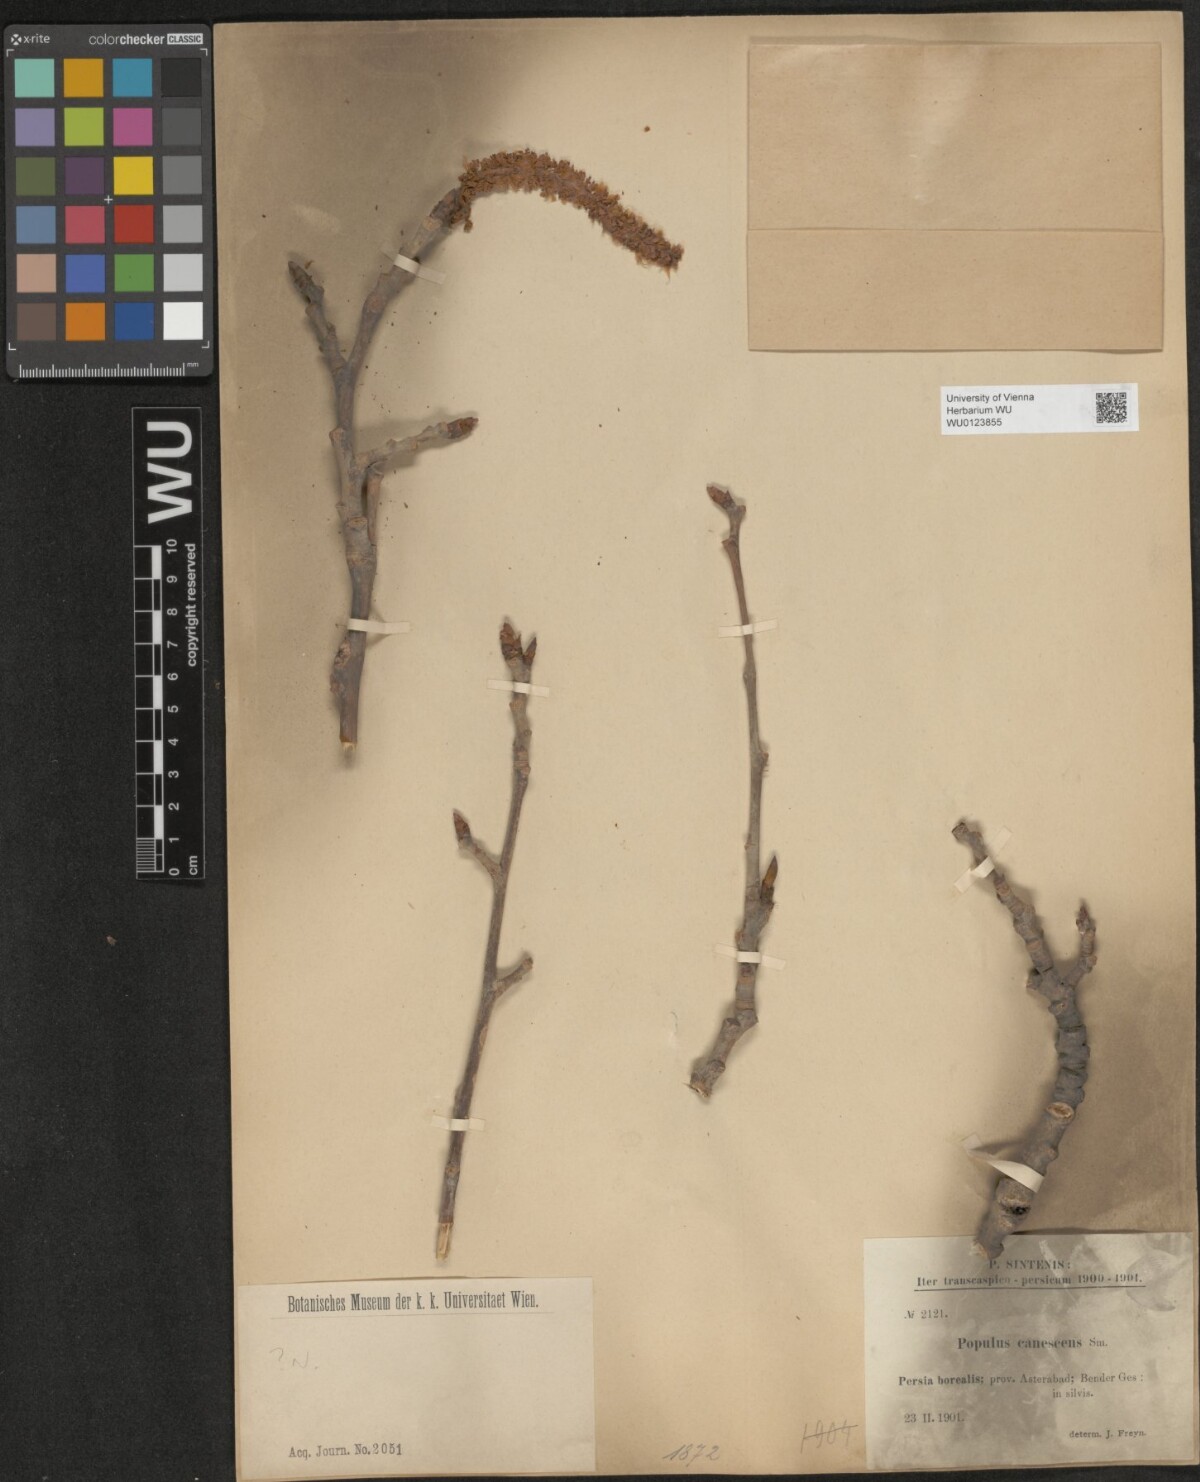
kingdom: Plantae
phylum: Tracheophyta
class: Magnoliopsida
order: Malpighiales
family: Salicaceae
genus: Populus
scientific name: Populus canescens
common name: Gray poplar
